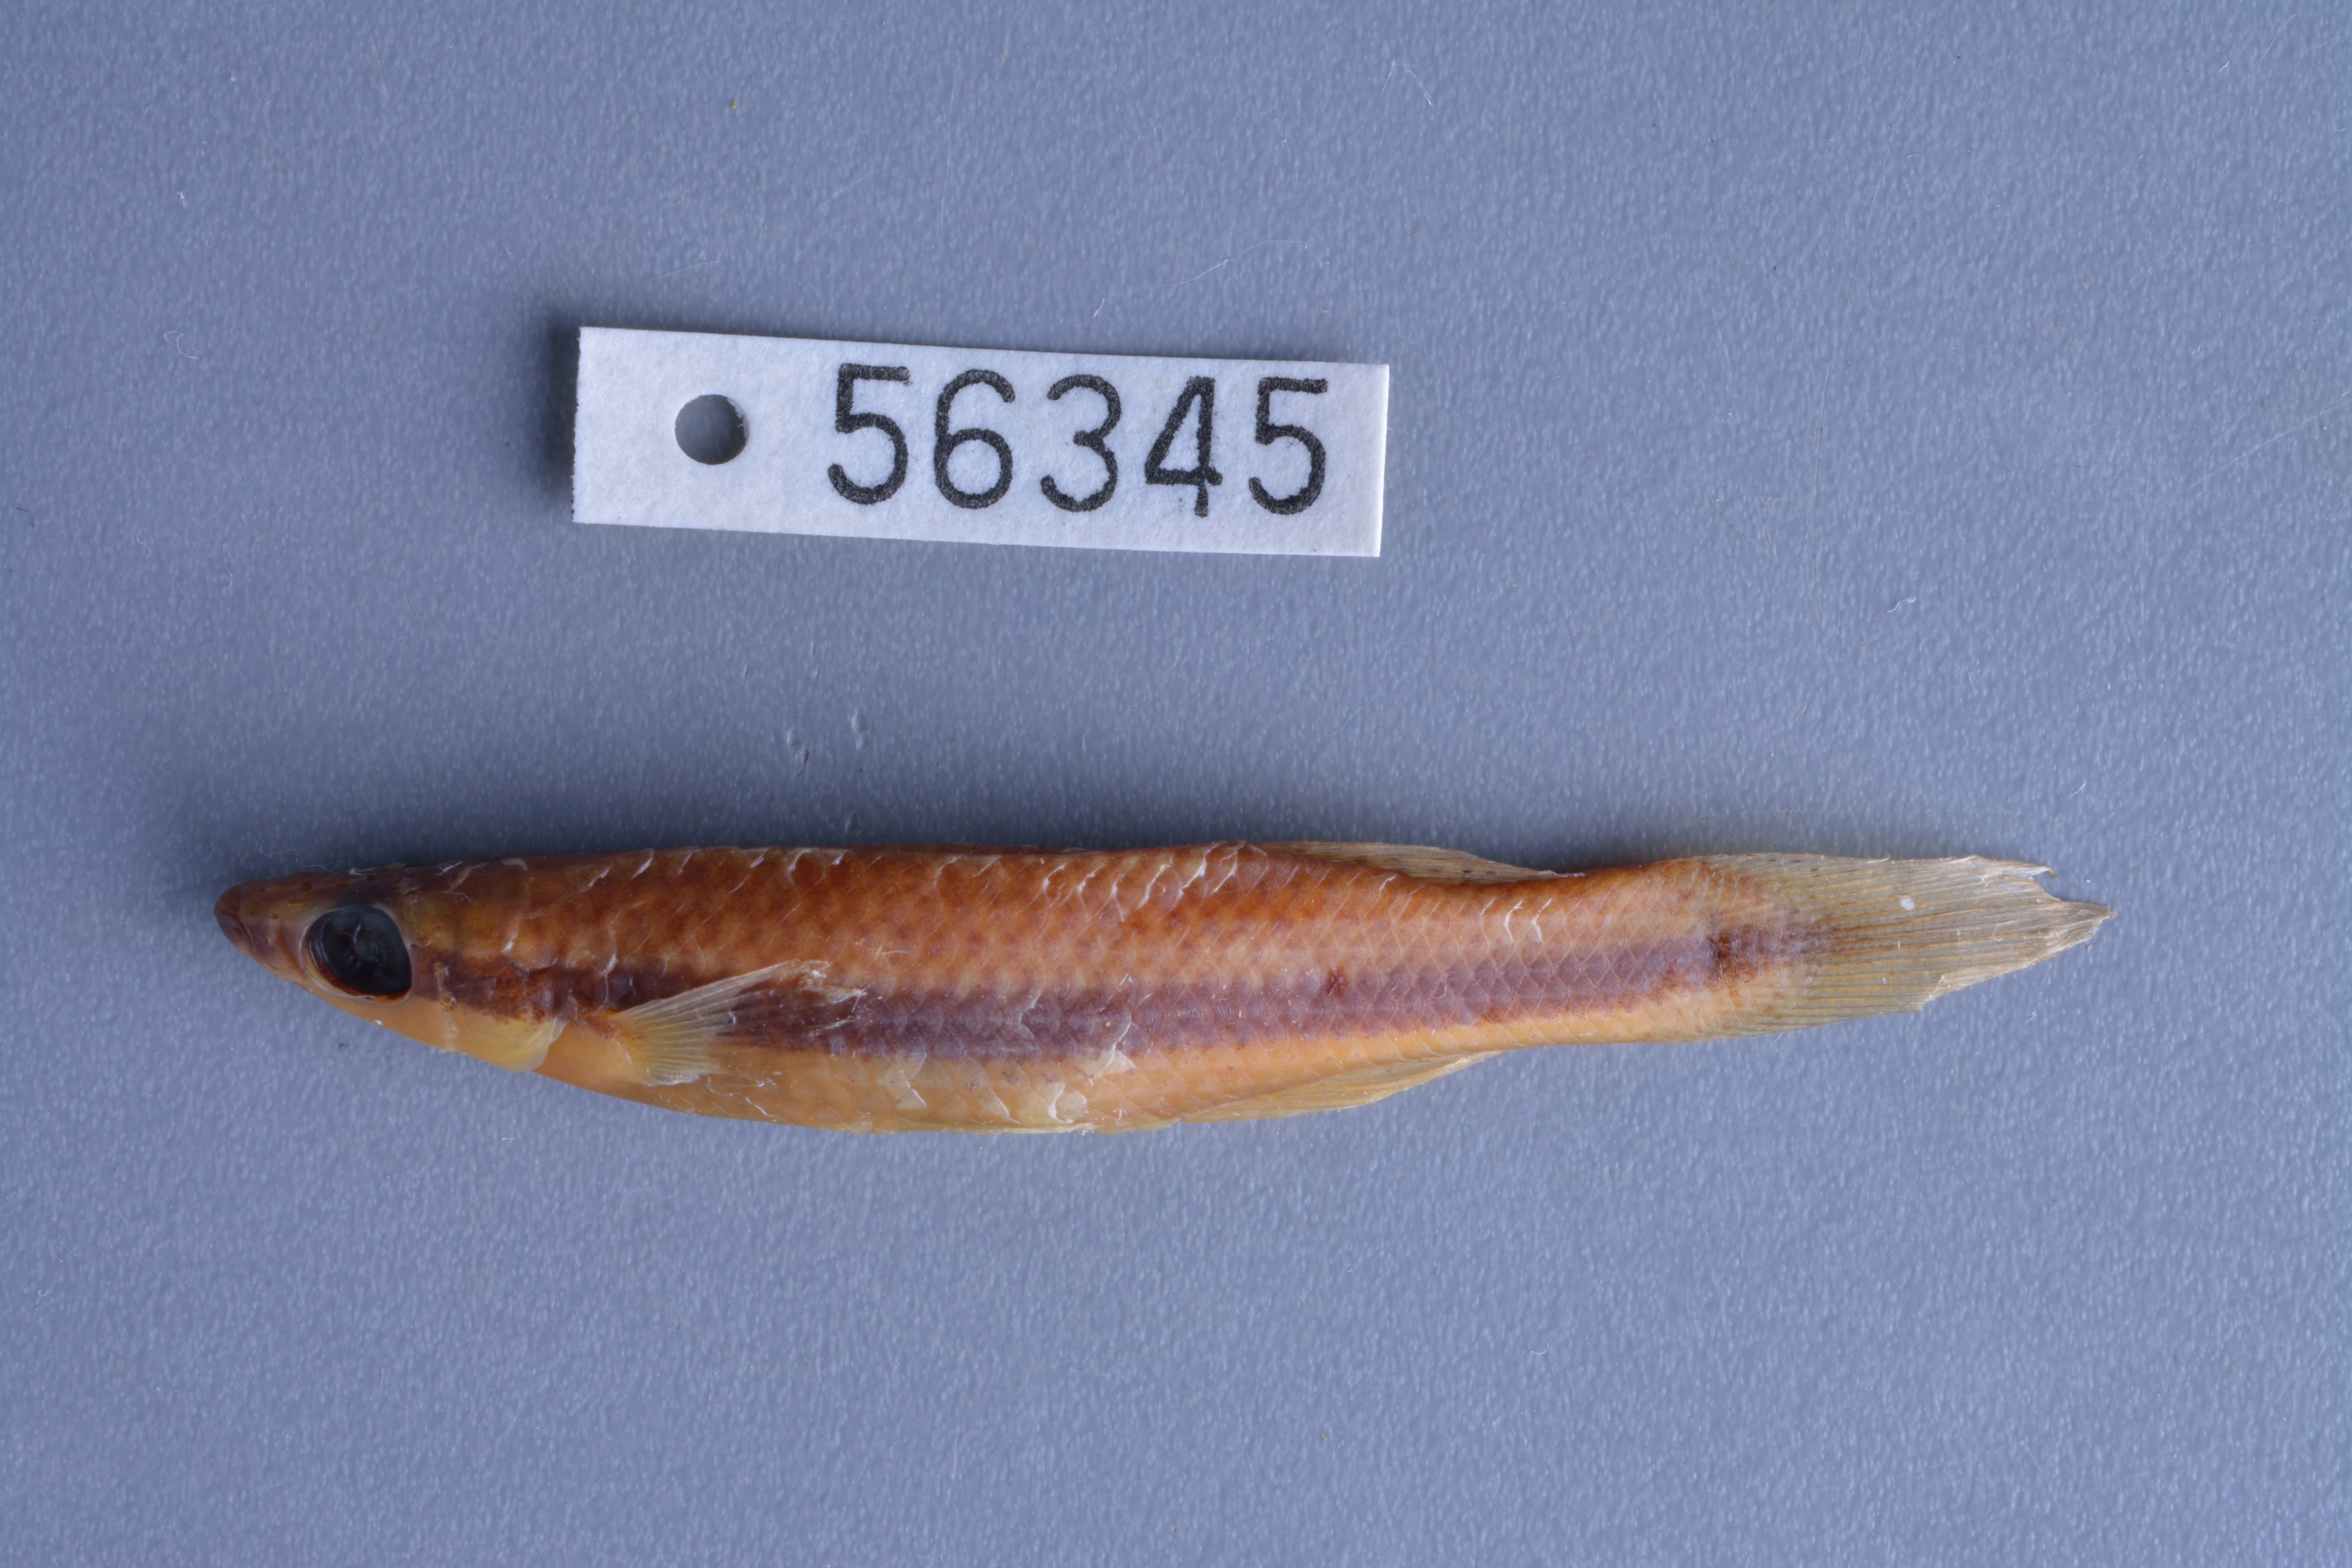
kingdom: Animalia
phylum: Chordata
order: Cyprinodontiformes
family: Fundulidae
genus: Fundulus
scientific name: Fundulus notatus
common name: Blackstripe topminnow
